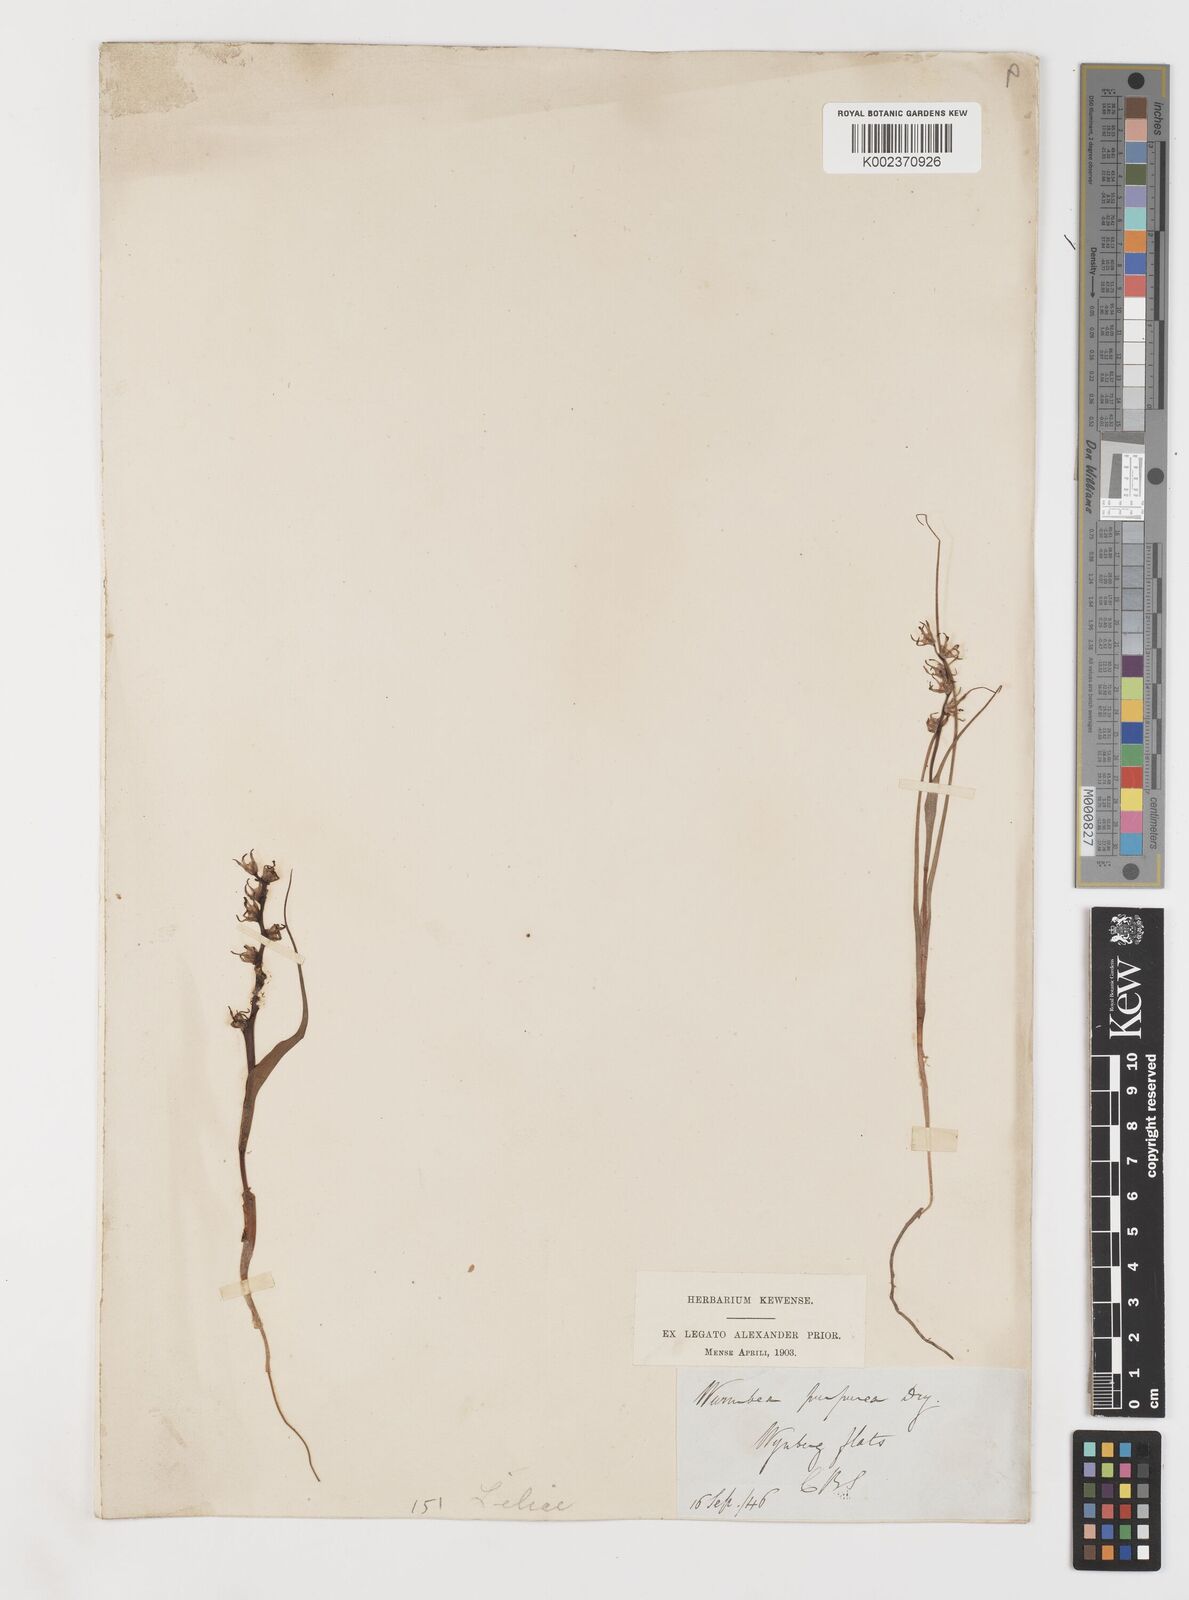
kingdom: Plantae
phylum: Tracheophyta
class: Liliopsida
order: Liliales
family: Colchicaceae
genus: Wurmbea
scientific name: Wurmbea marginata
